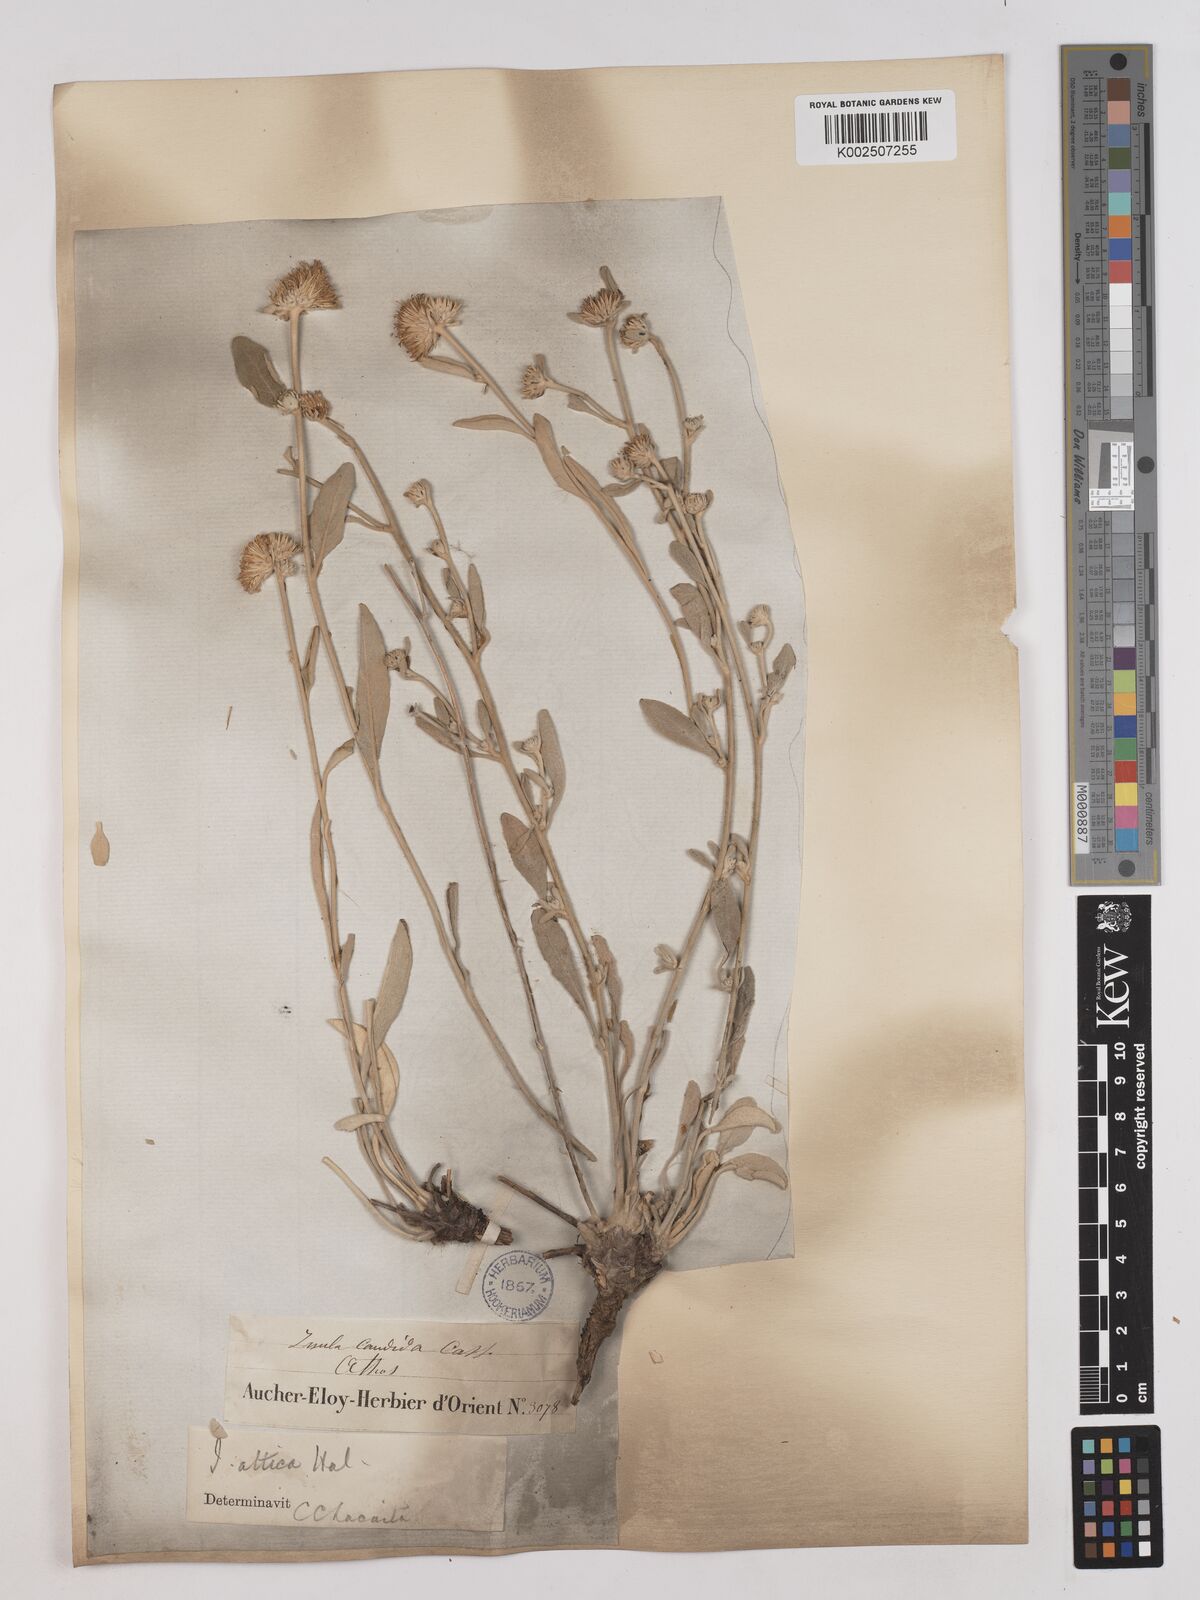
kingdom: Plantae
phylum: Tracheophyta
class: Magnoliopsida
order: Asterales
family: Asteraceae
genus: Pentanema
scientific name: Pentanema verbascifolium
